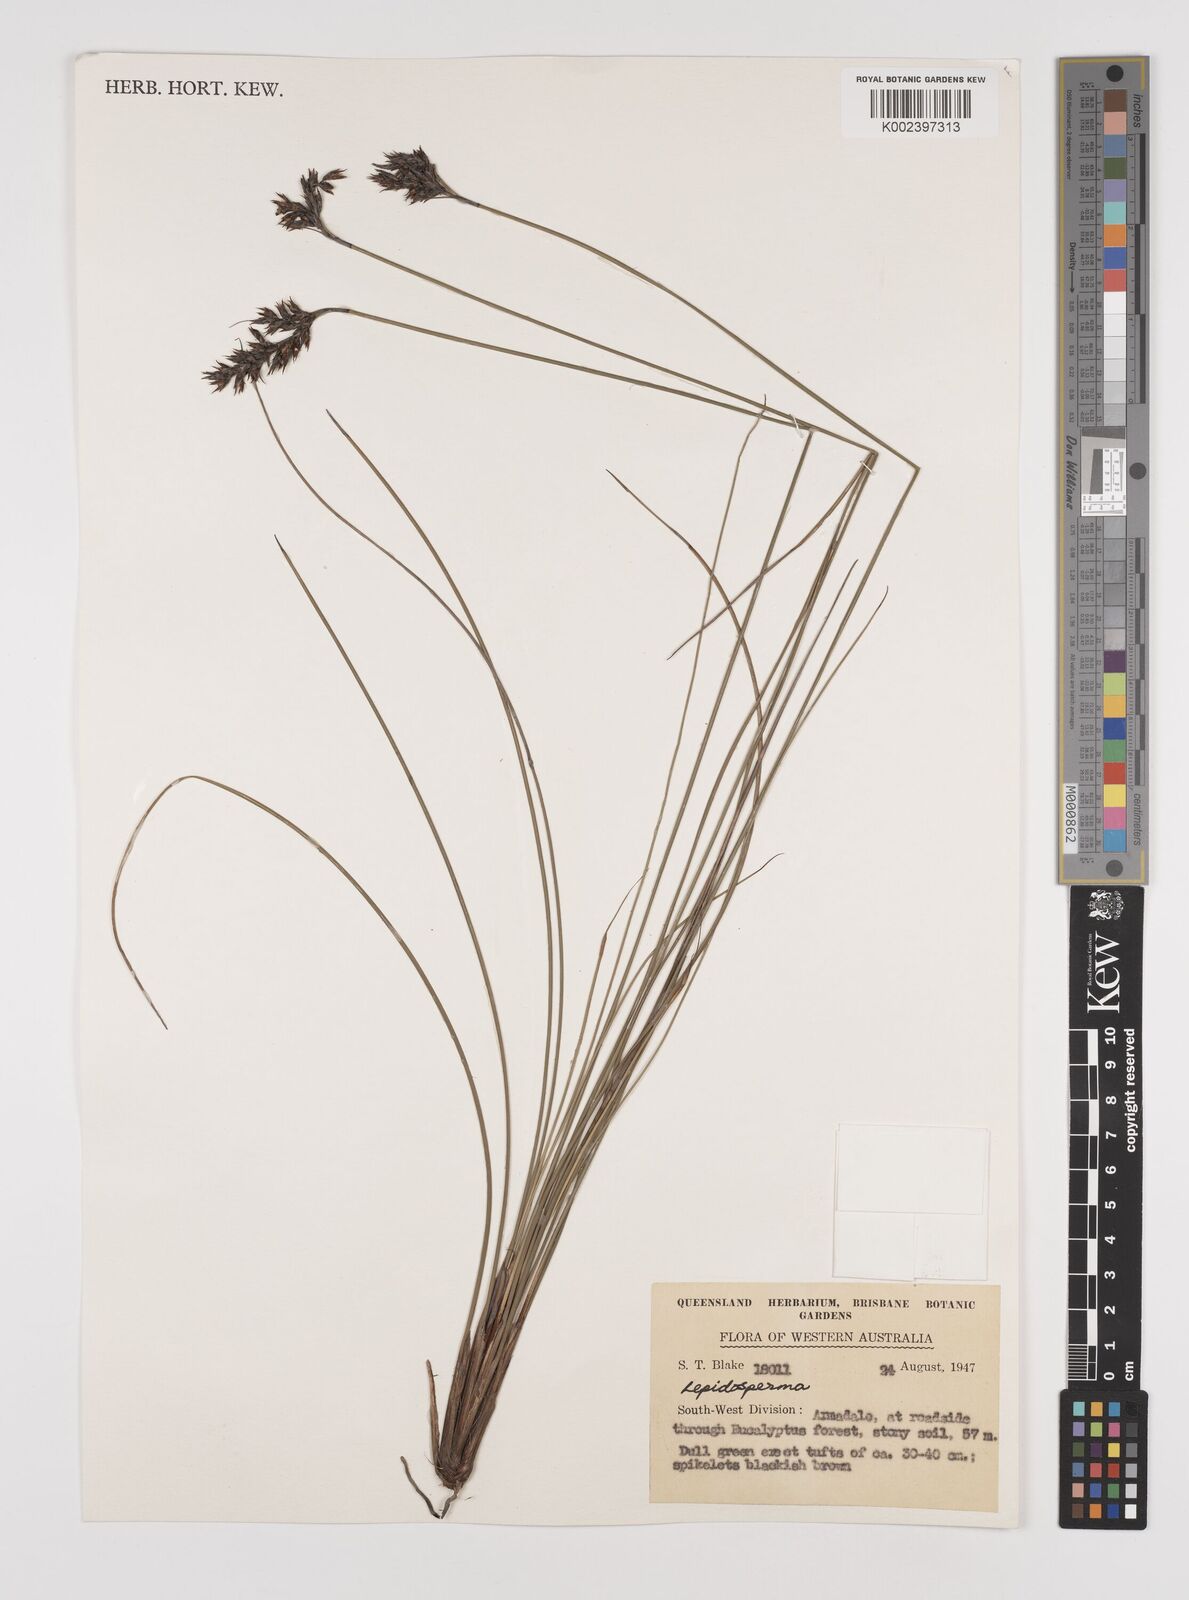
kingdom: Plantae
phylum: Tracheophyta
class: Liliopsida
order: Poales
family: Cyperaceae
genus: Lepidosperma
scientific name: Lepidosperma
